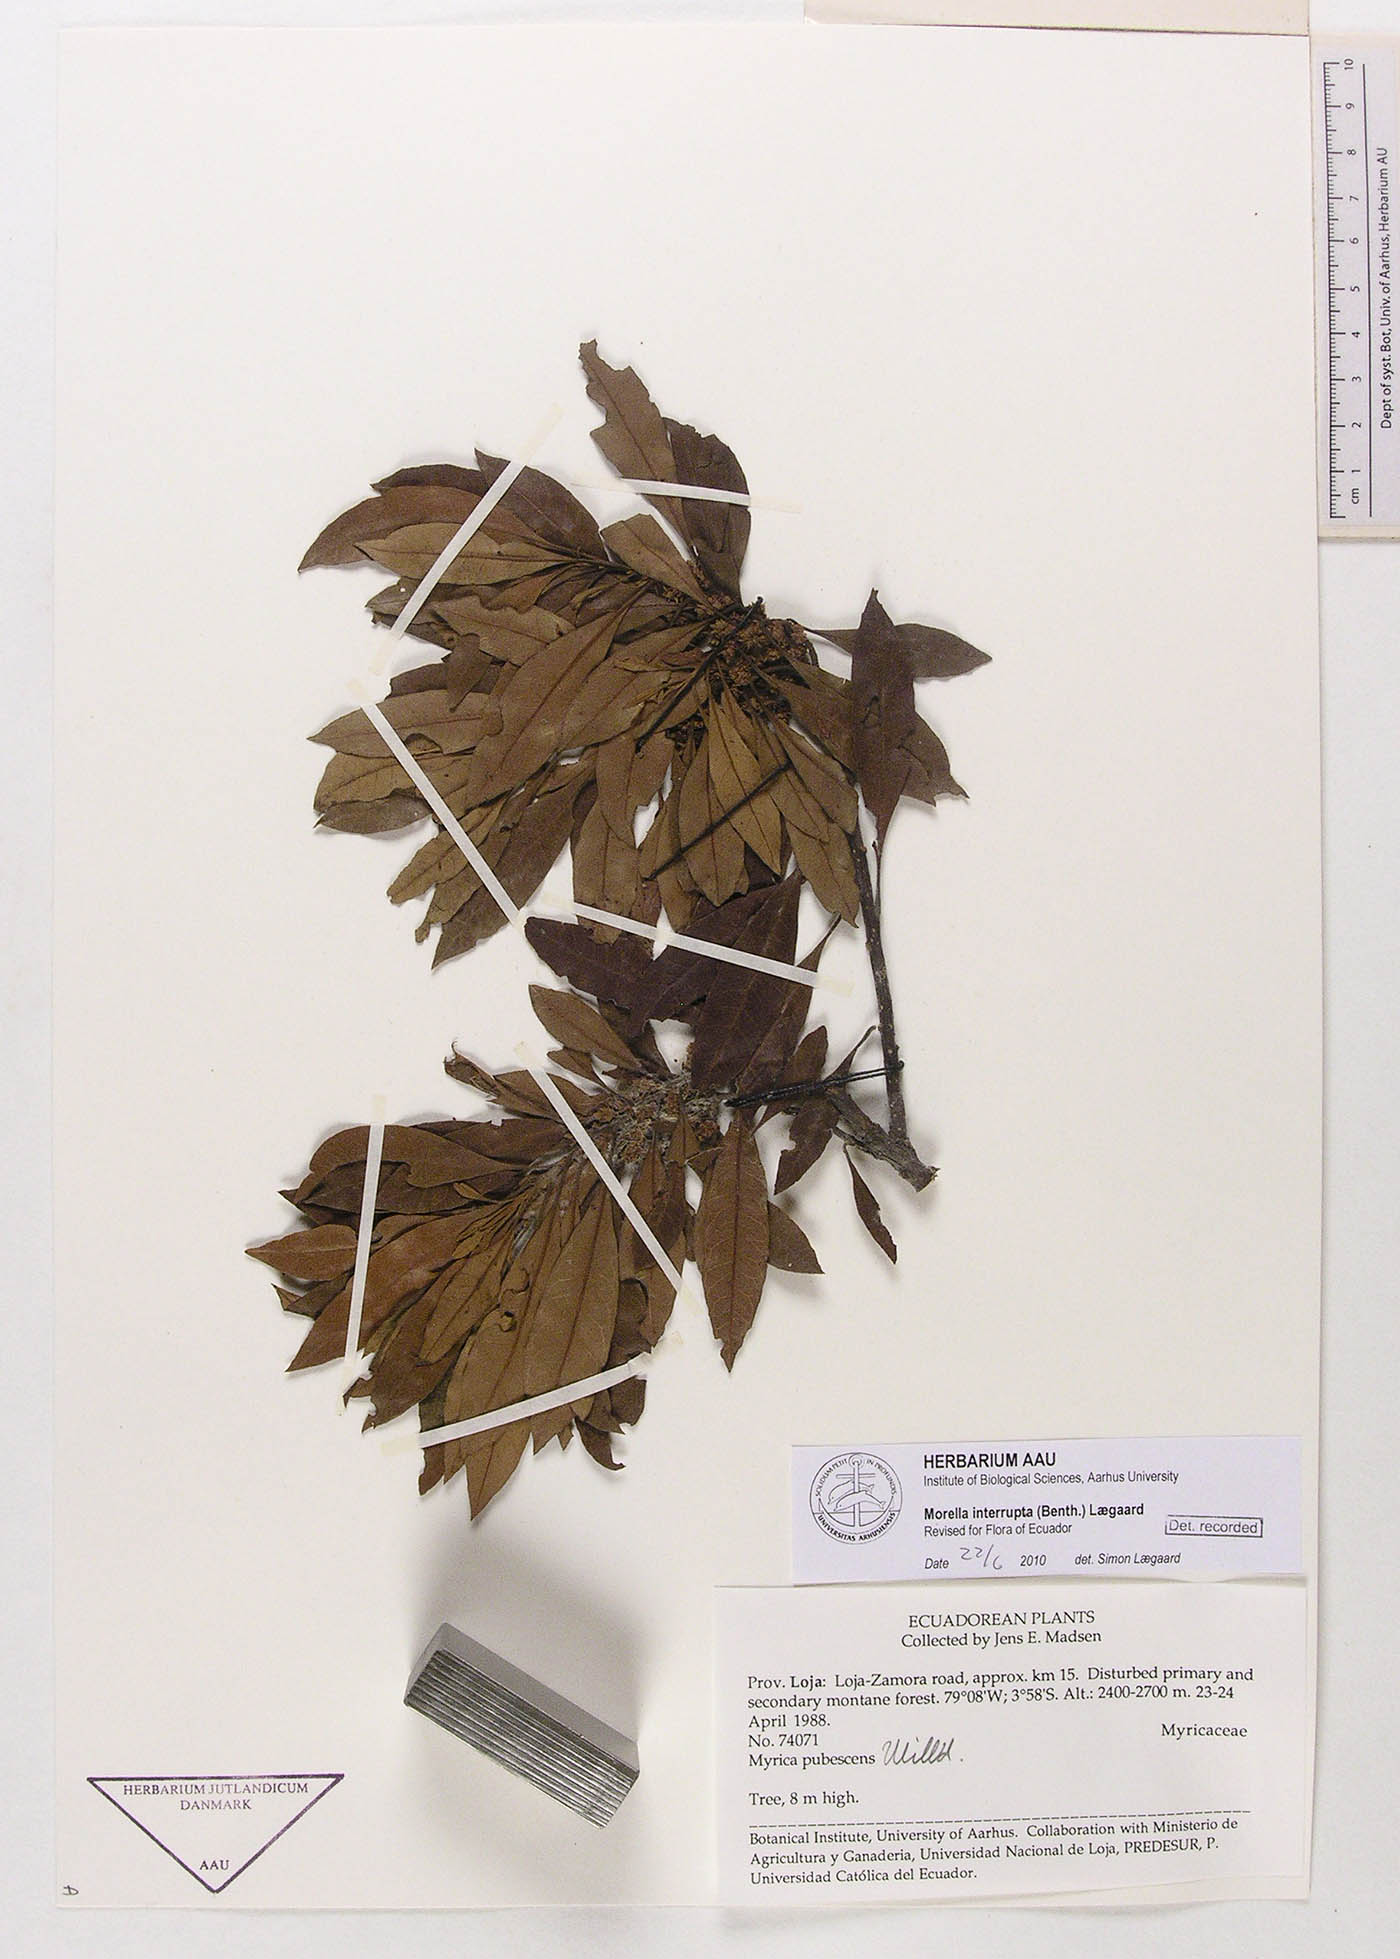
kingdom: Plantae
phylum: Tracheophyta
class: Magnoliopsida
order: Fagales
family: Myricaceae
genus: Morella
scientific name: Morella interrupta
